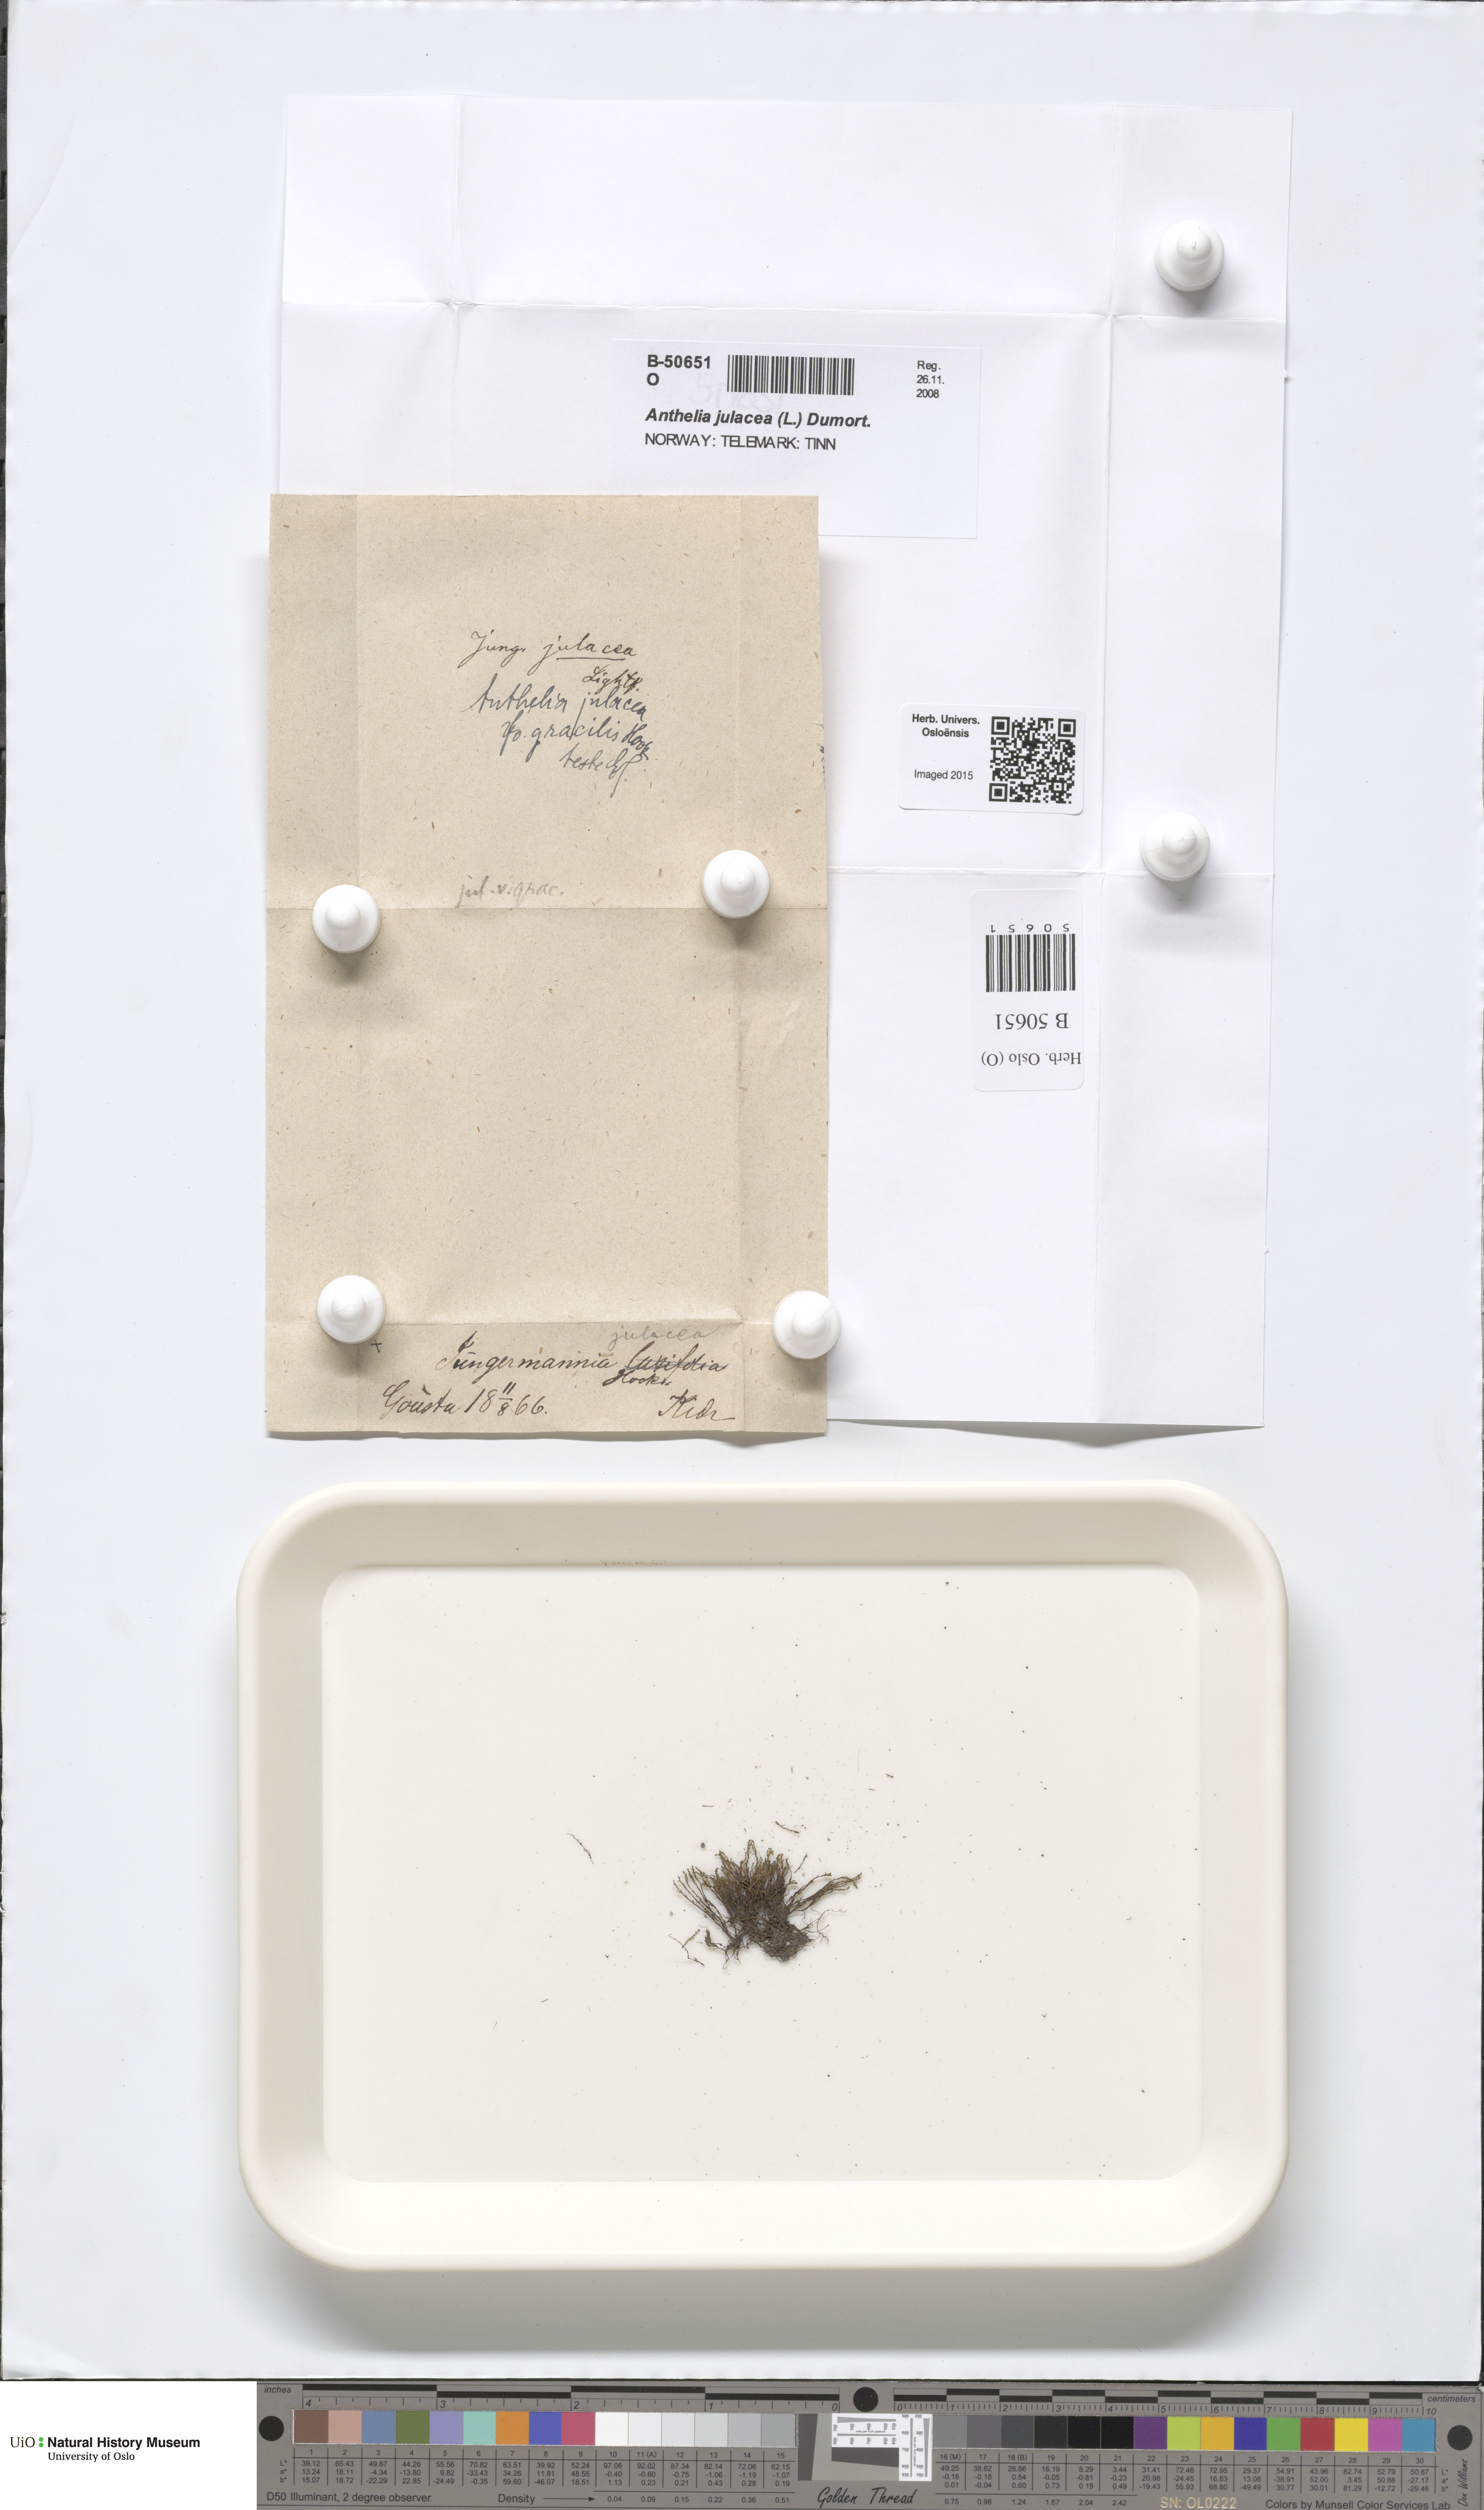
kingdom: Plantae
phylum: Marchantiophyta
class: Jungermanniopsida
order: Jungermanniales
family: Antheliaceae
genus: Anthelia
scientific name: Anthelia julacea
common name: Alpine silverwort
